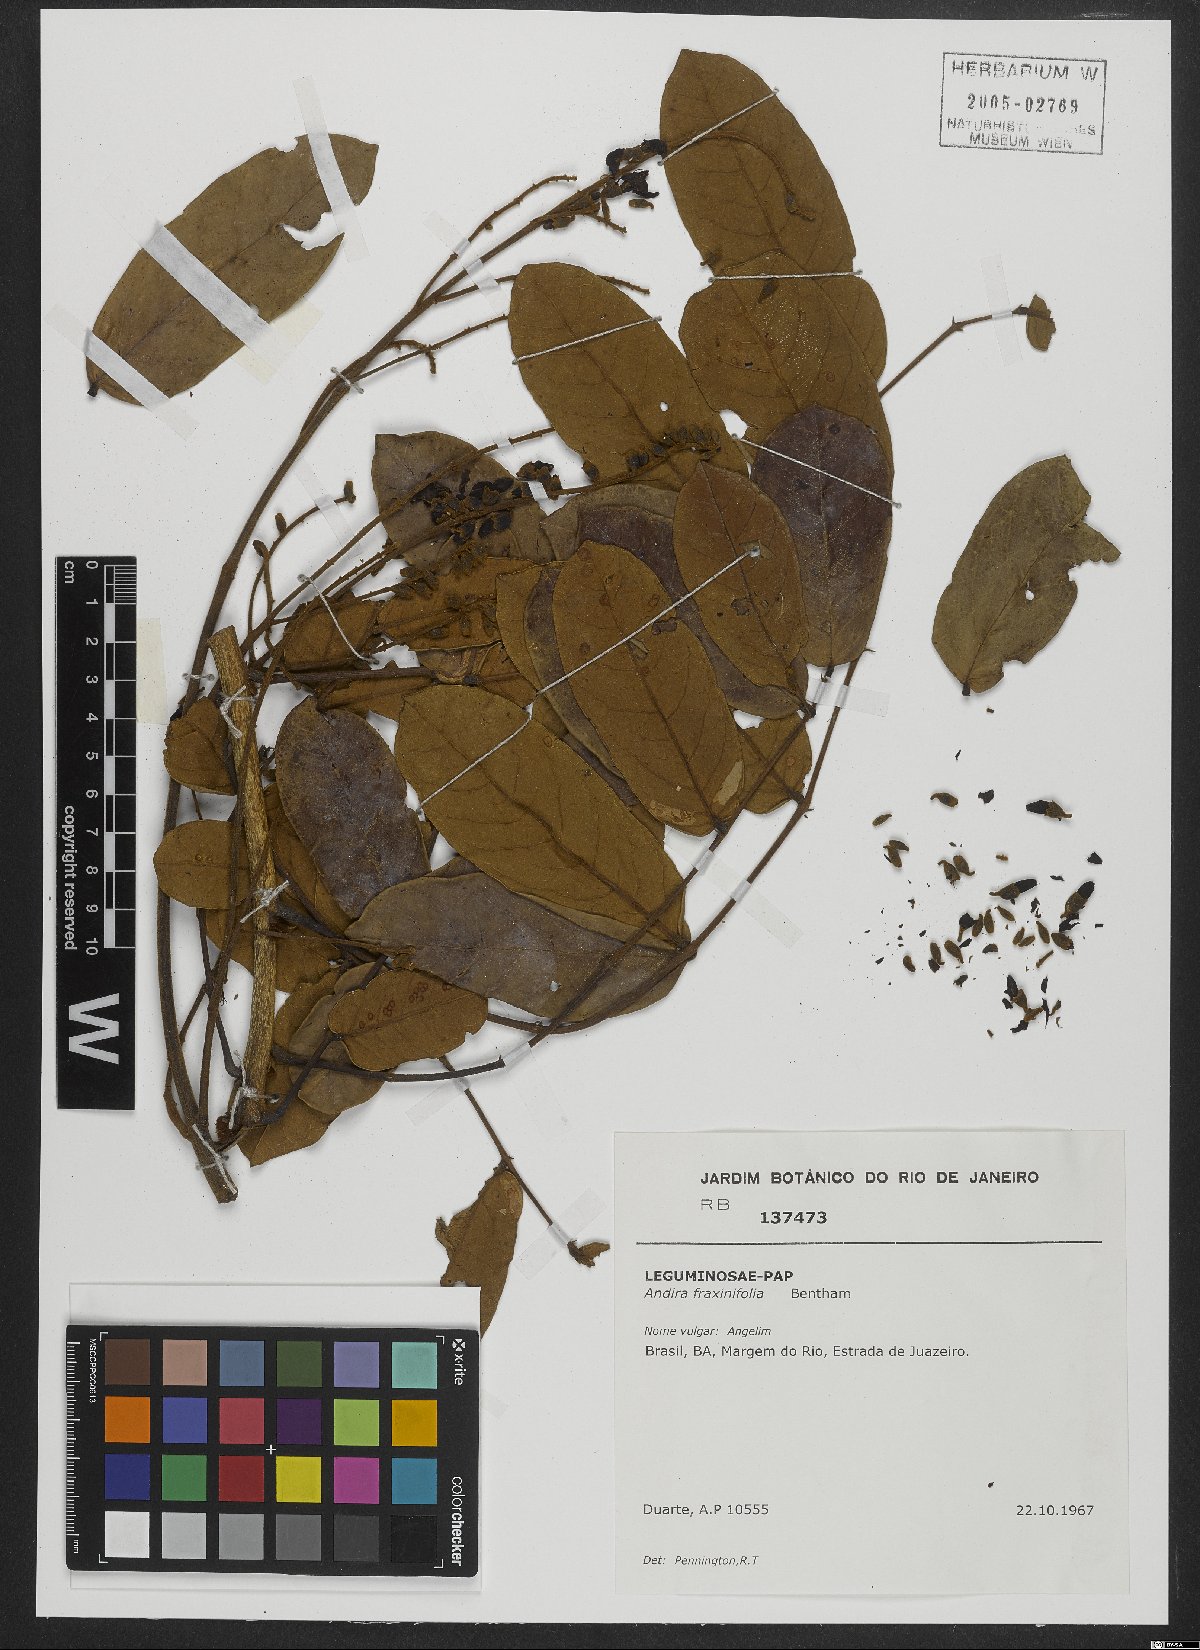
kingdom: Plantae
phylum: Tracheophyta
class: Magnoliopsida
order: Fabales
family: Fabaceae
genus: Andira
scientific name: Andira fraxinifolia
